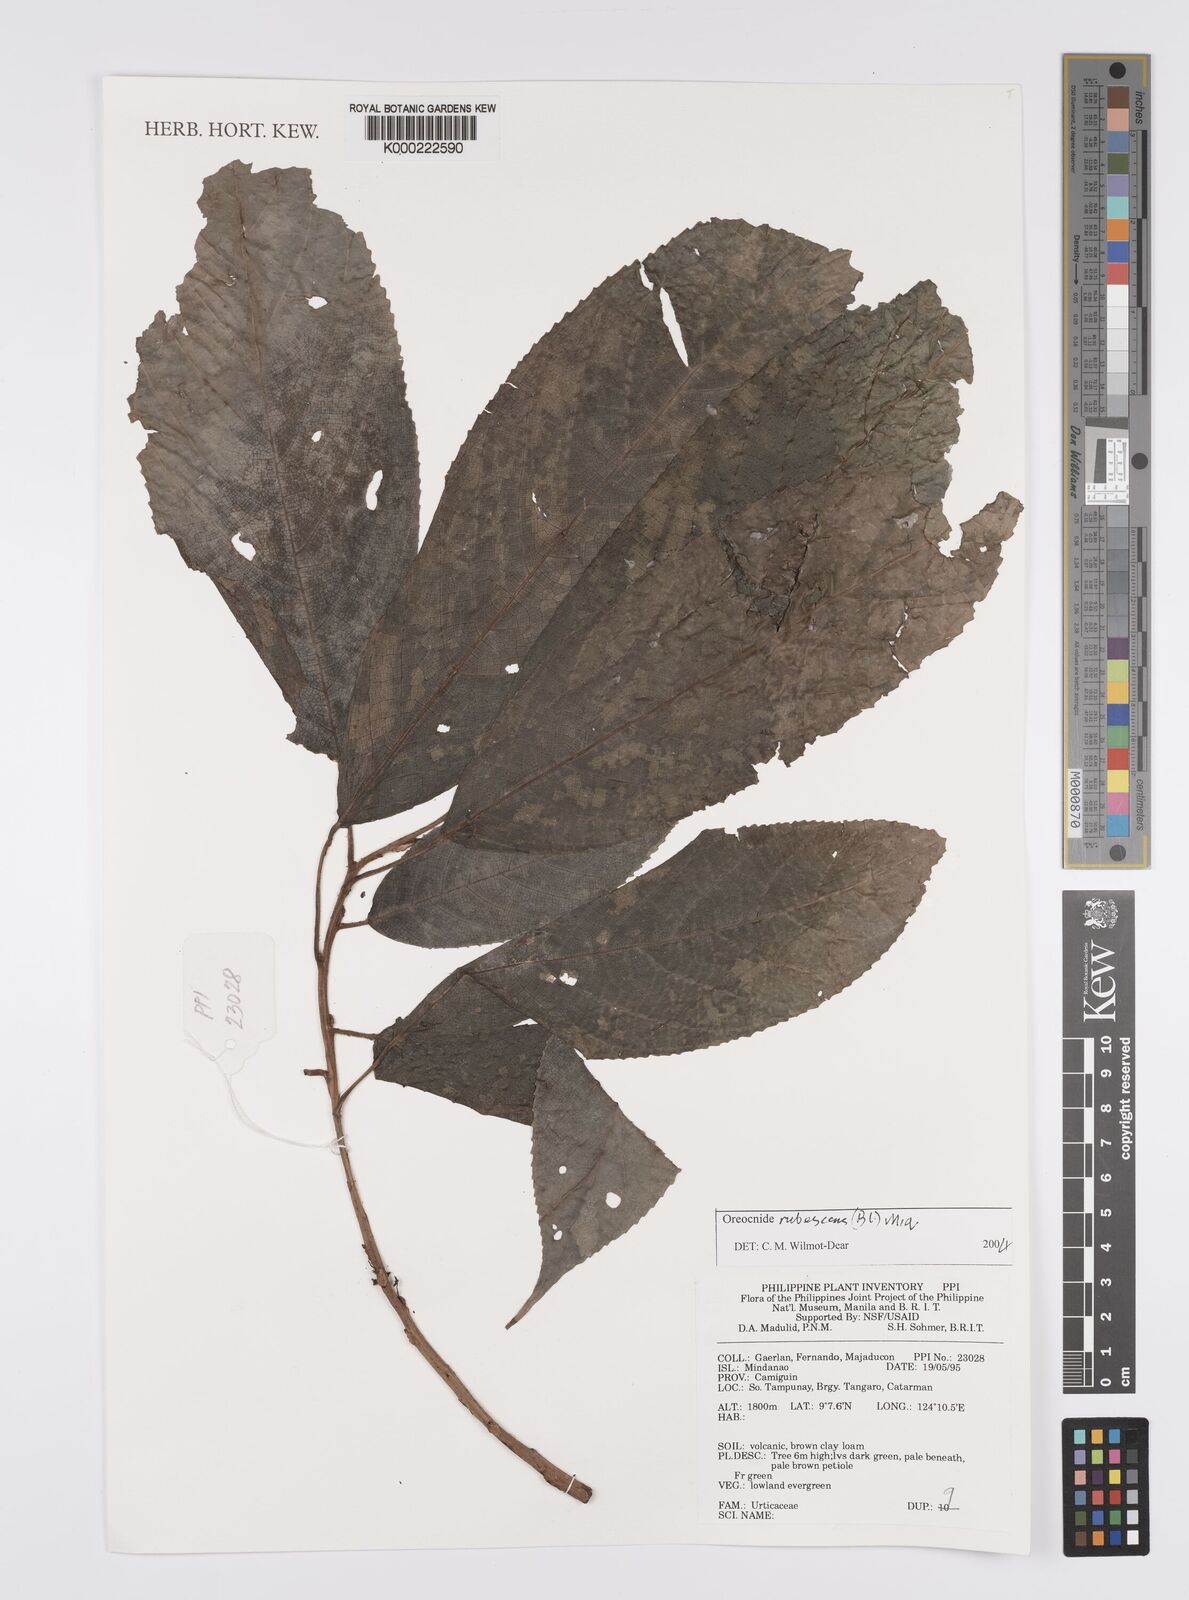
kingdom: Plantae
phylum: Tracheophyta
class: Magnoliopsida
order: Rosales
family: Urticaceae
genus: Oreocnide
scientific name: Oreocnide rubescens
